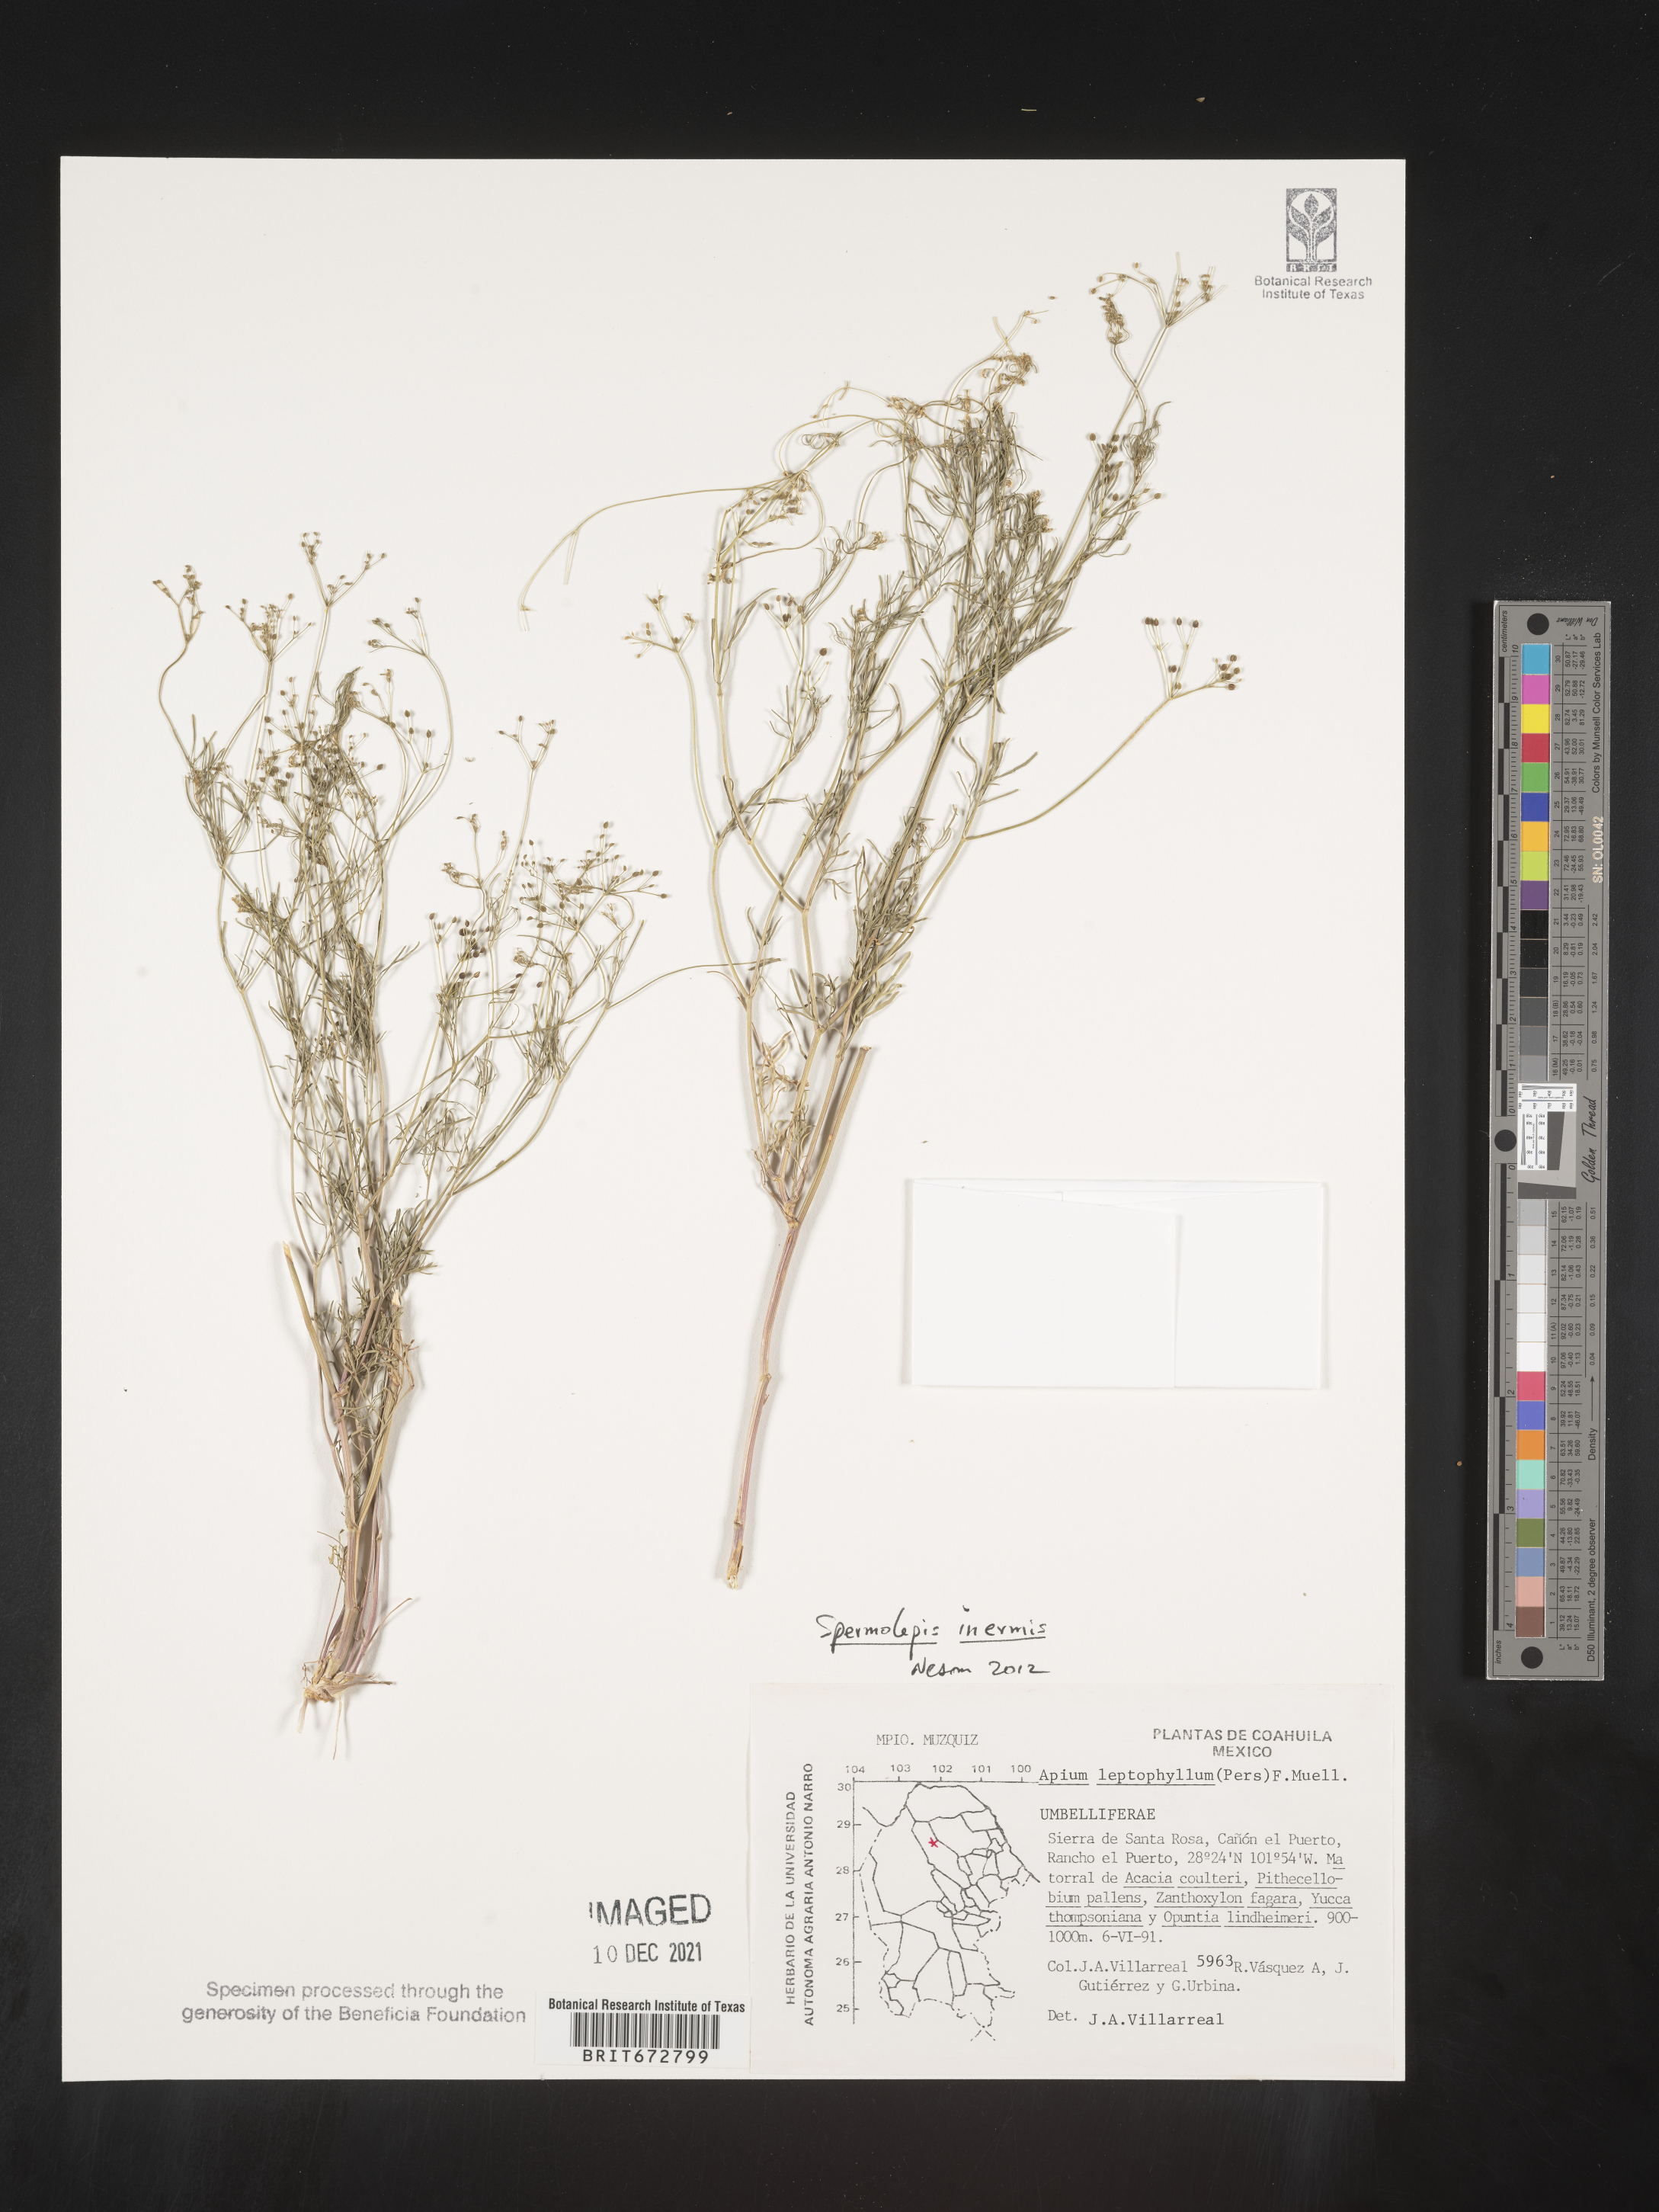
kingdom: Plantae
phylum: Tracheophyta
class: Magnoliopsida
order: Apiales
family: Apiaceae
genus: Spermolepis
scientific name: Spermolepis inermis
